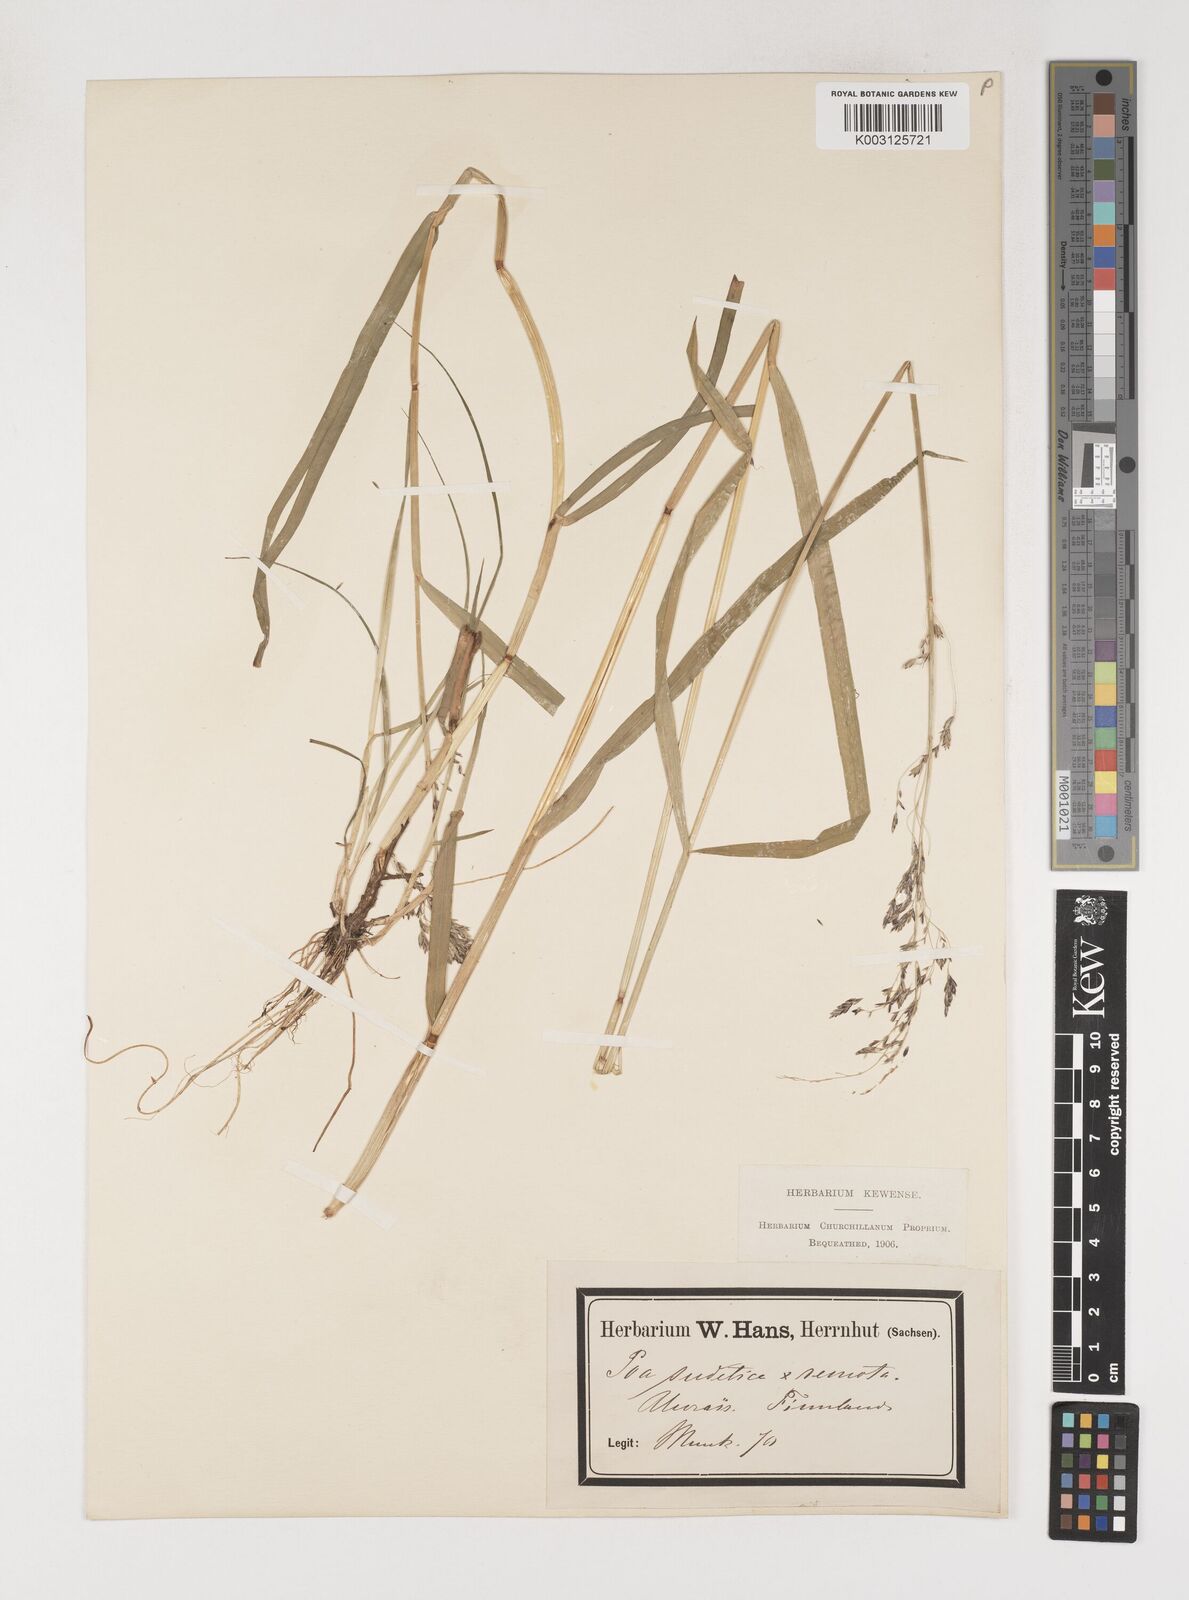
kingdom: Plantae
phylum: Tracheophyta
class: Liliopsida
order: Poales
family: Poaceae
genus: Poa
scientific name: Poa chaixii
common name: Broad-leaved meadow-grass
